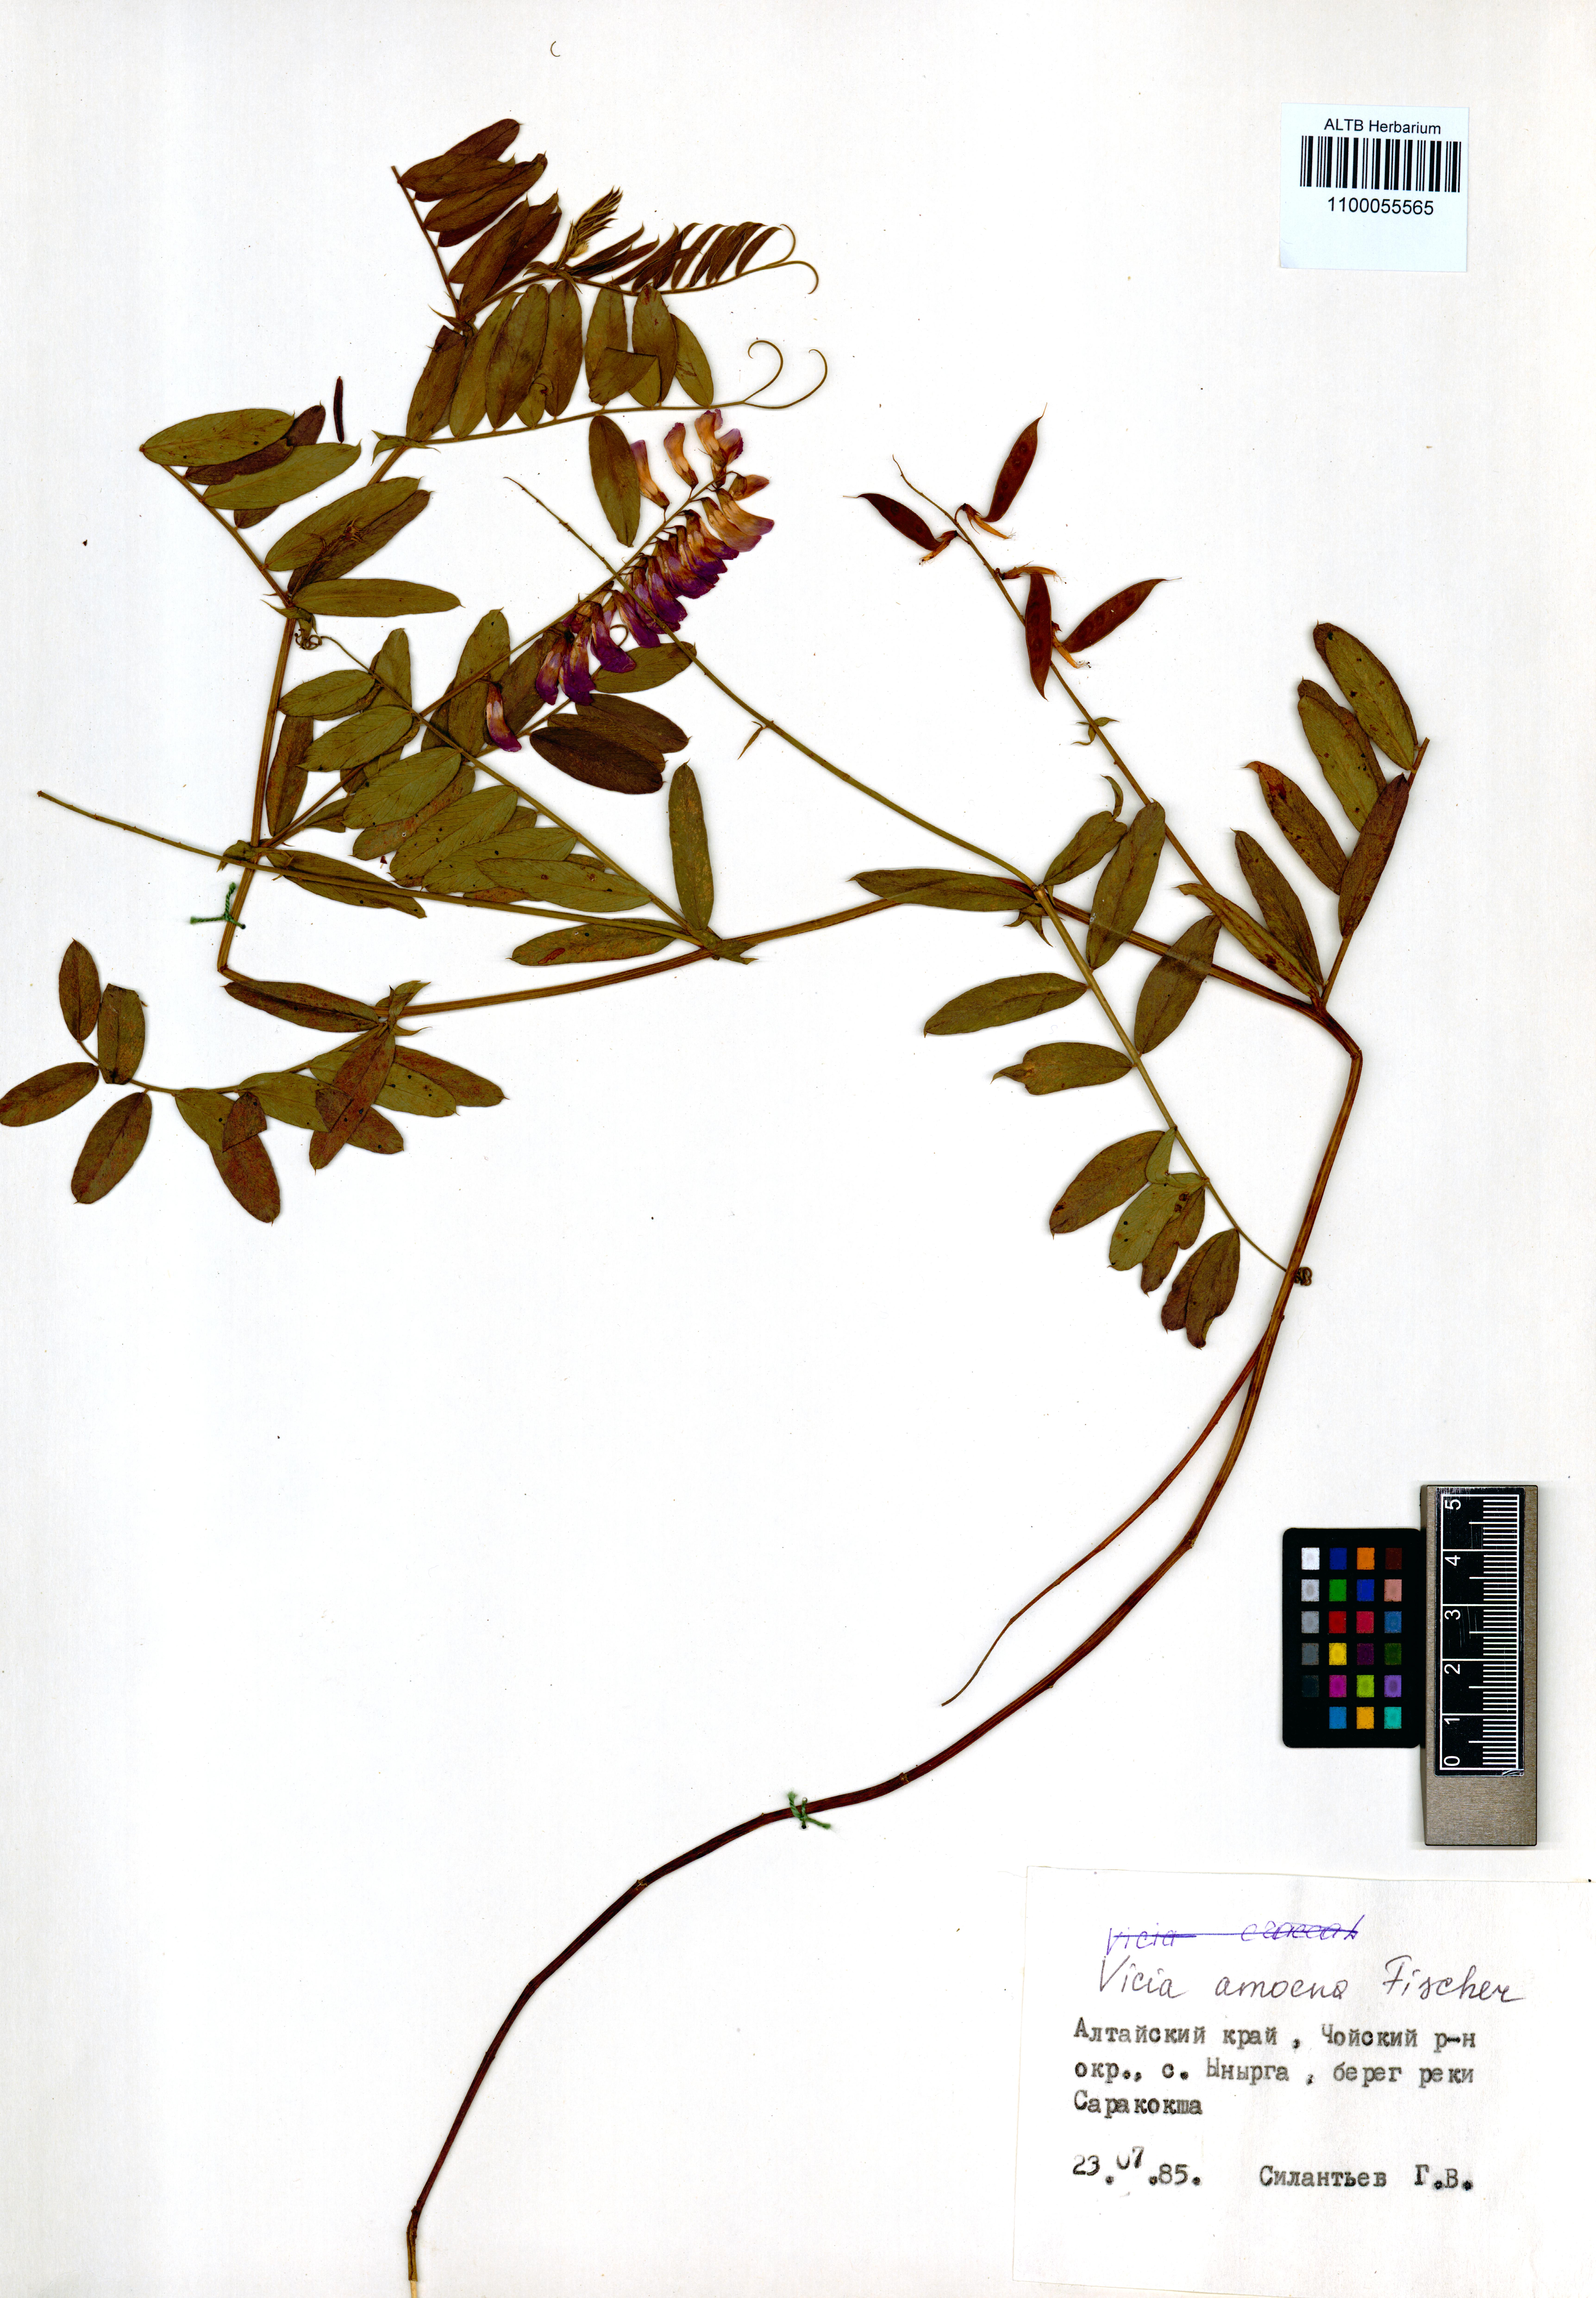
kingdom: Plantae
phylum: Tracheophyta
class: Magnoliopsida
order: Fabales
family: Fabaceae
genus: Vicia
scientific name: Vicia amoena
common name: Cheder ebs
